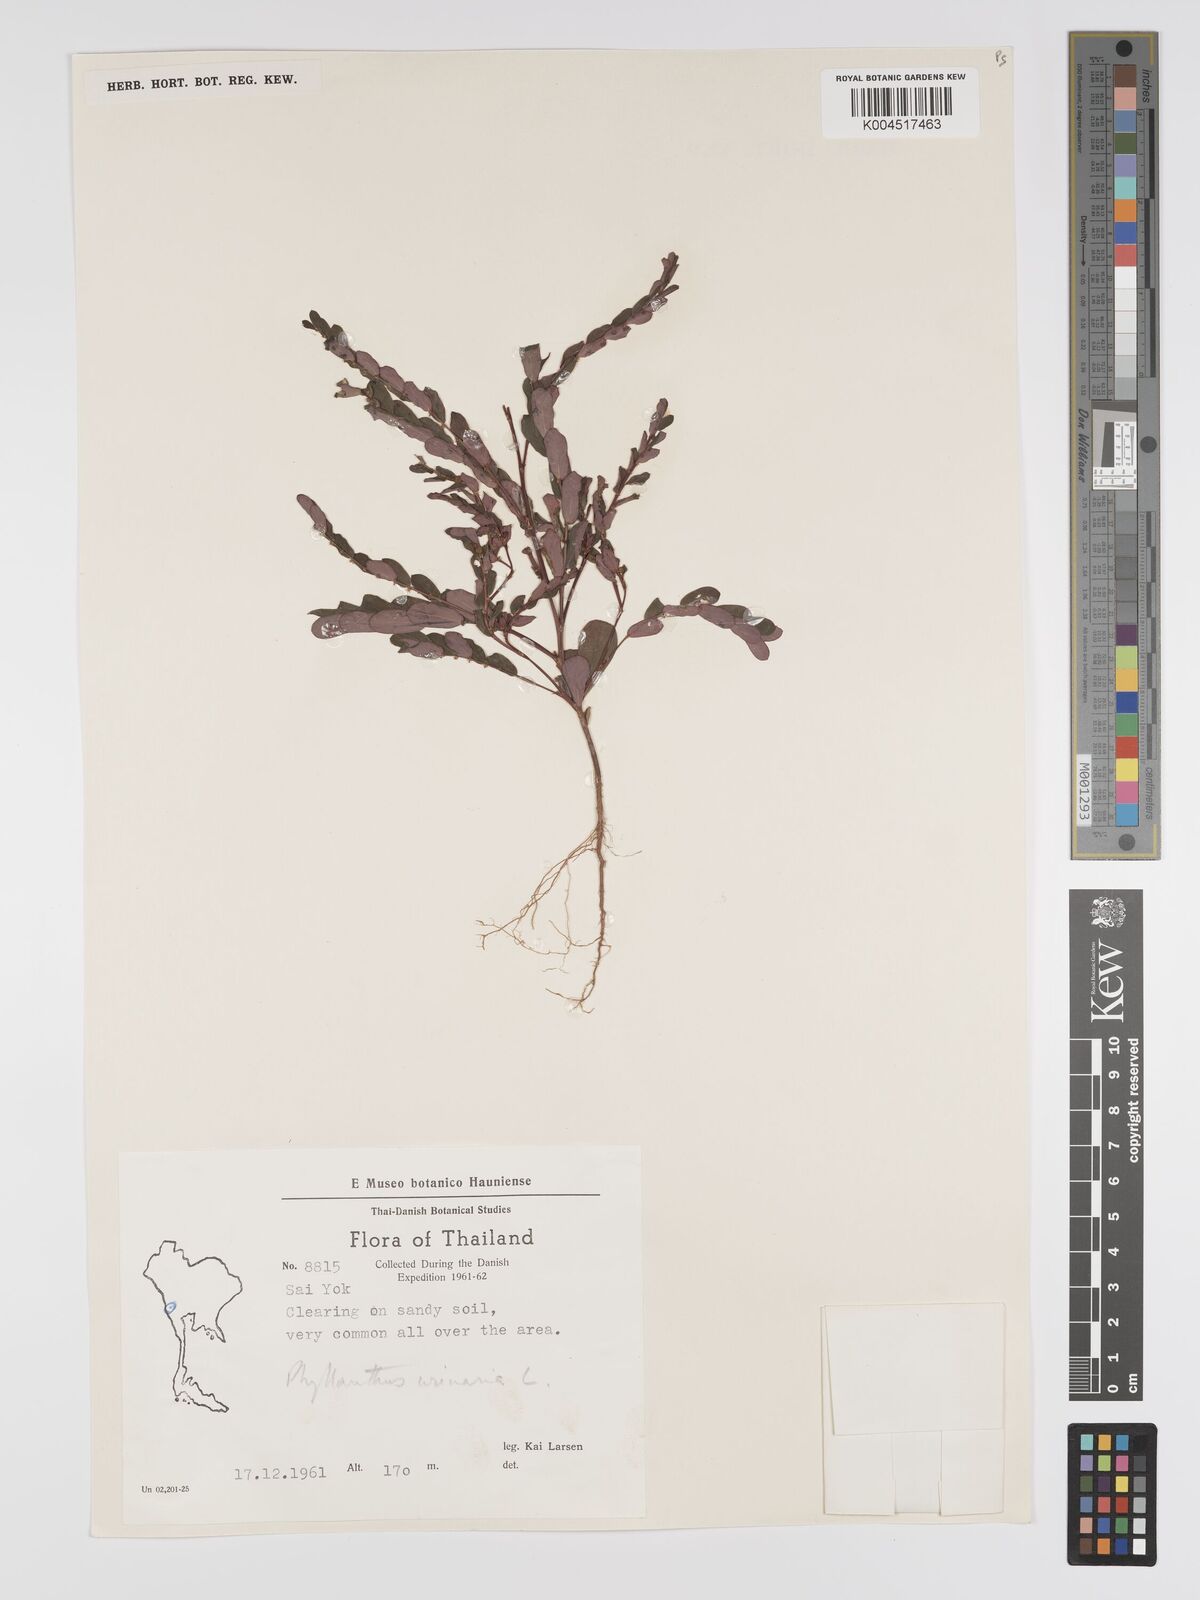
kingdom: Plantae
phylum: Tracheophyta
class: Magnoliopsida
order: Malpighiales
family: Phyllanthaceae
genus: Phyllanthus
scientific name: Phyllanthus urinaria
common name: Chamber bitter
